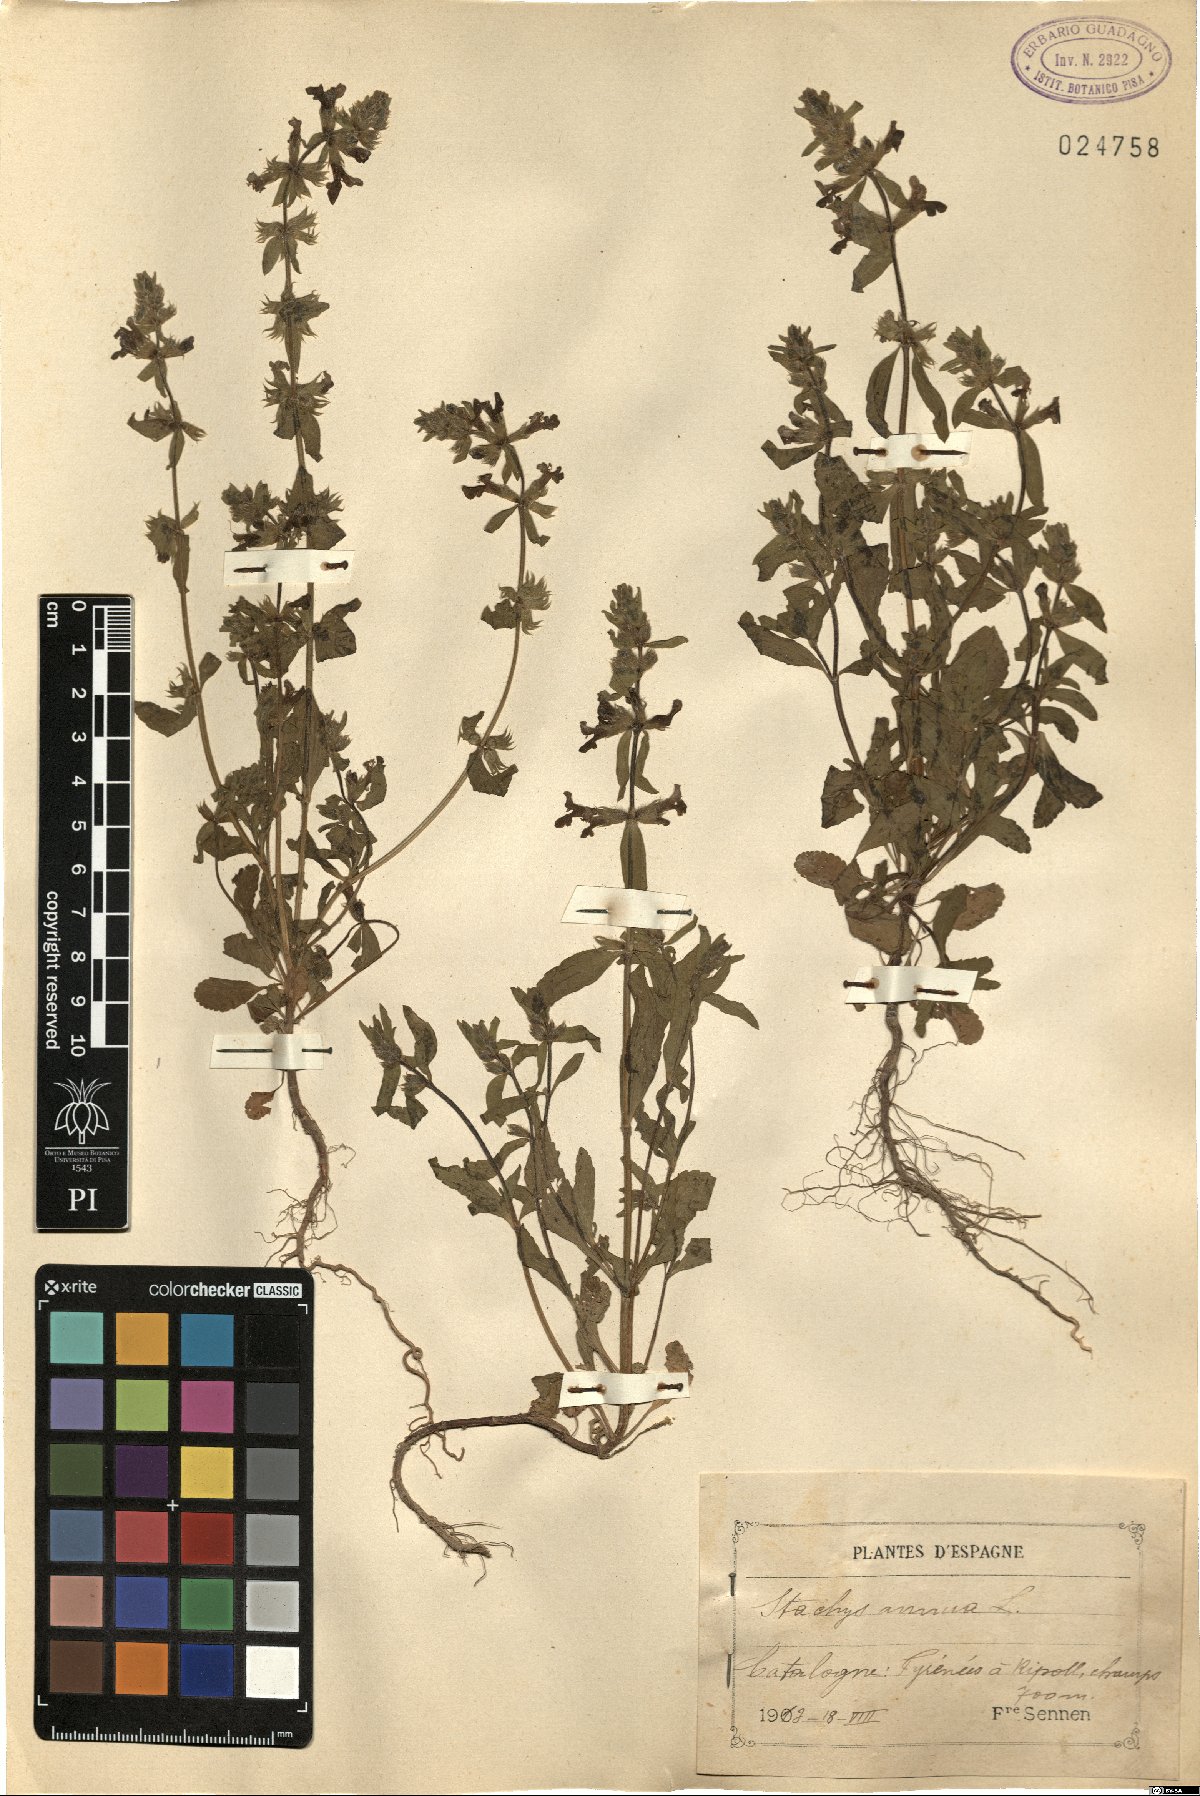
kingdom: Plantae
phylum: Tracheophyta
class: Magnoliopsida
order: Lamiales
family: Lamiaceae
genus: Stachys
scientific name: Stachys annua
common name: Annual yellow-woundwort
